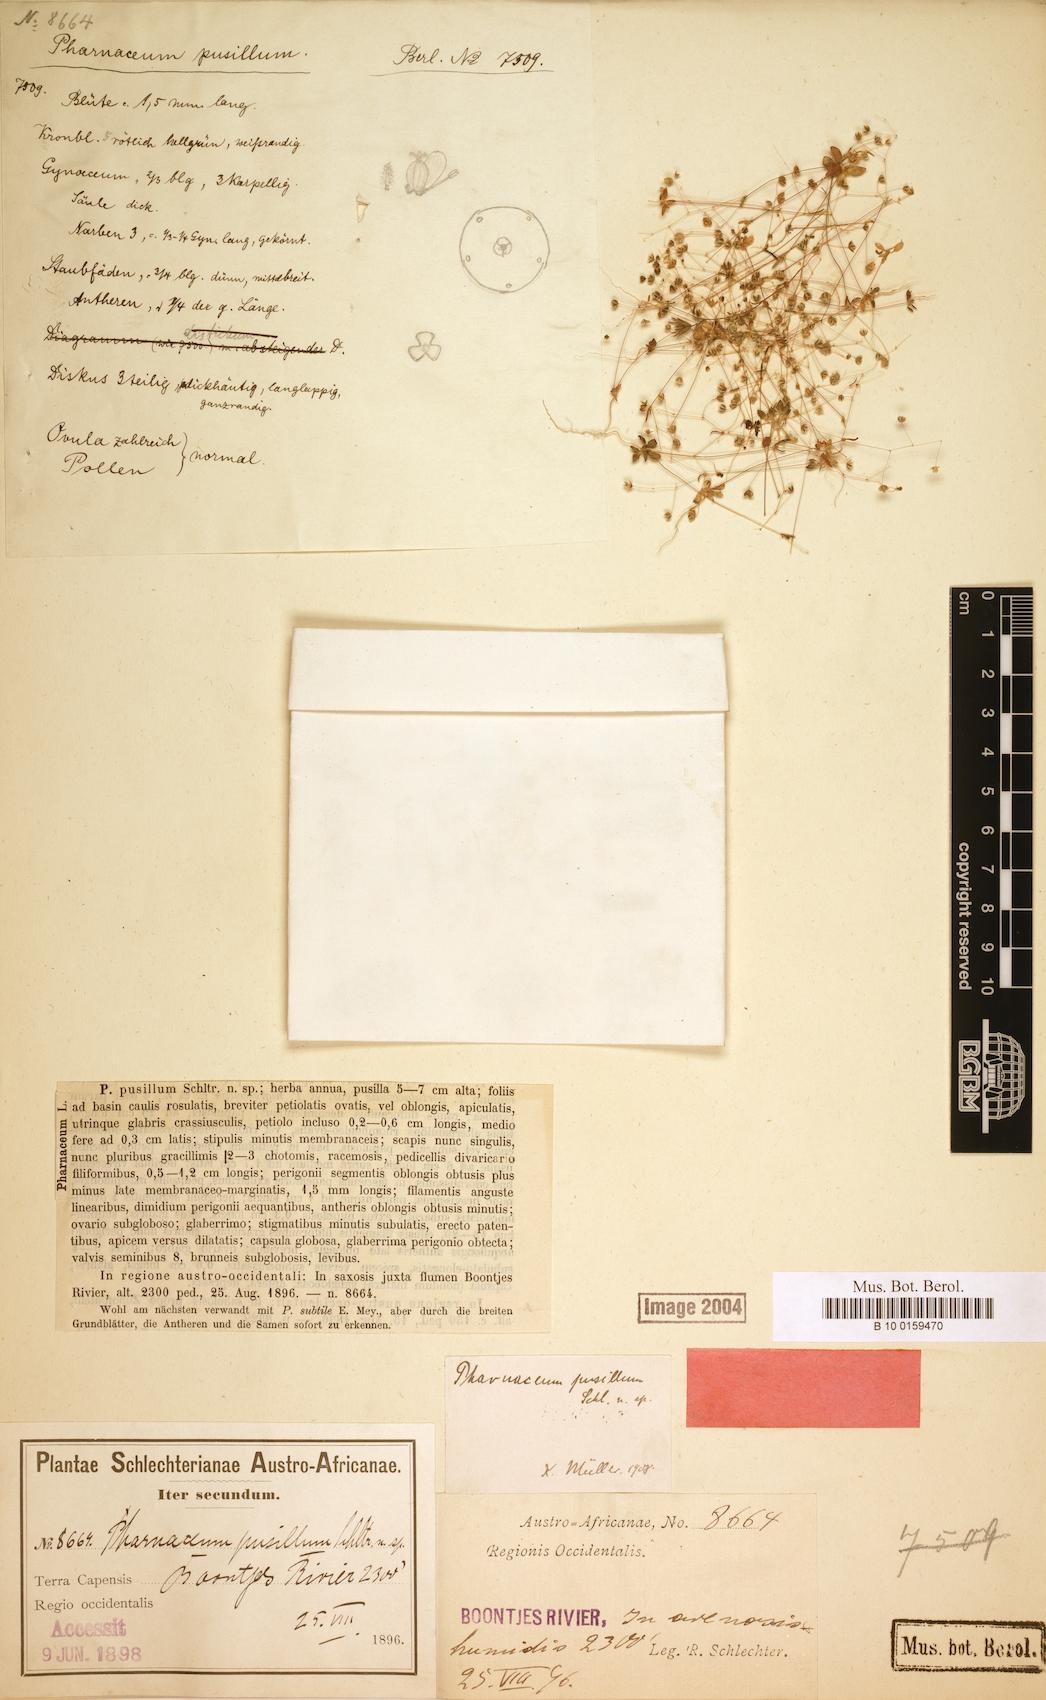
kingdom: Plantae
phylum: Tracheophyta
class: Magnoliopsida
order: Caryophyllales
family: Molluginaceae
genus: Hypertelis
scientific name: Hypertelis pusilla
